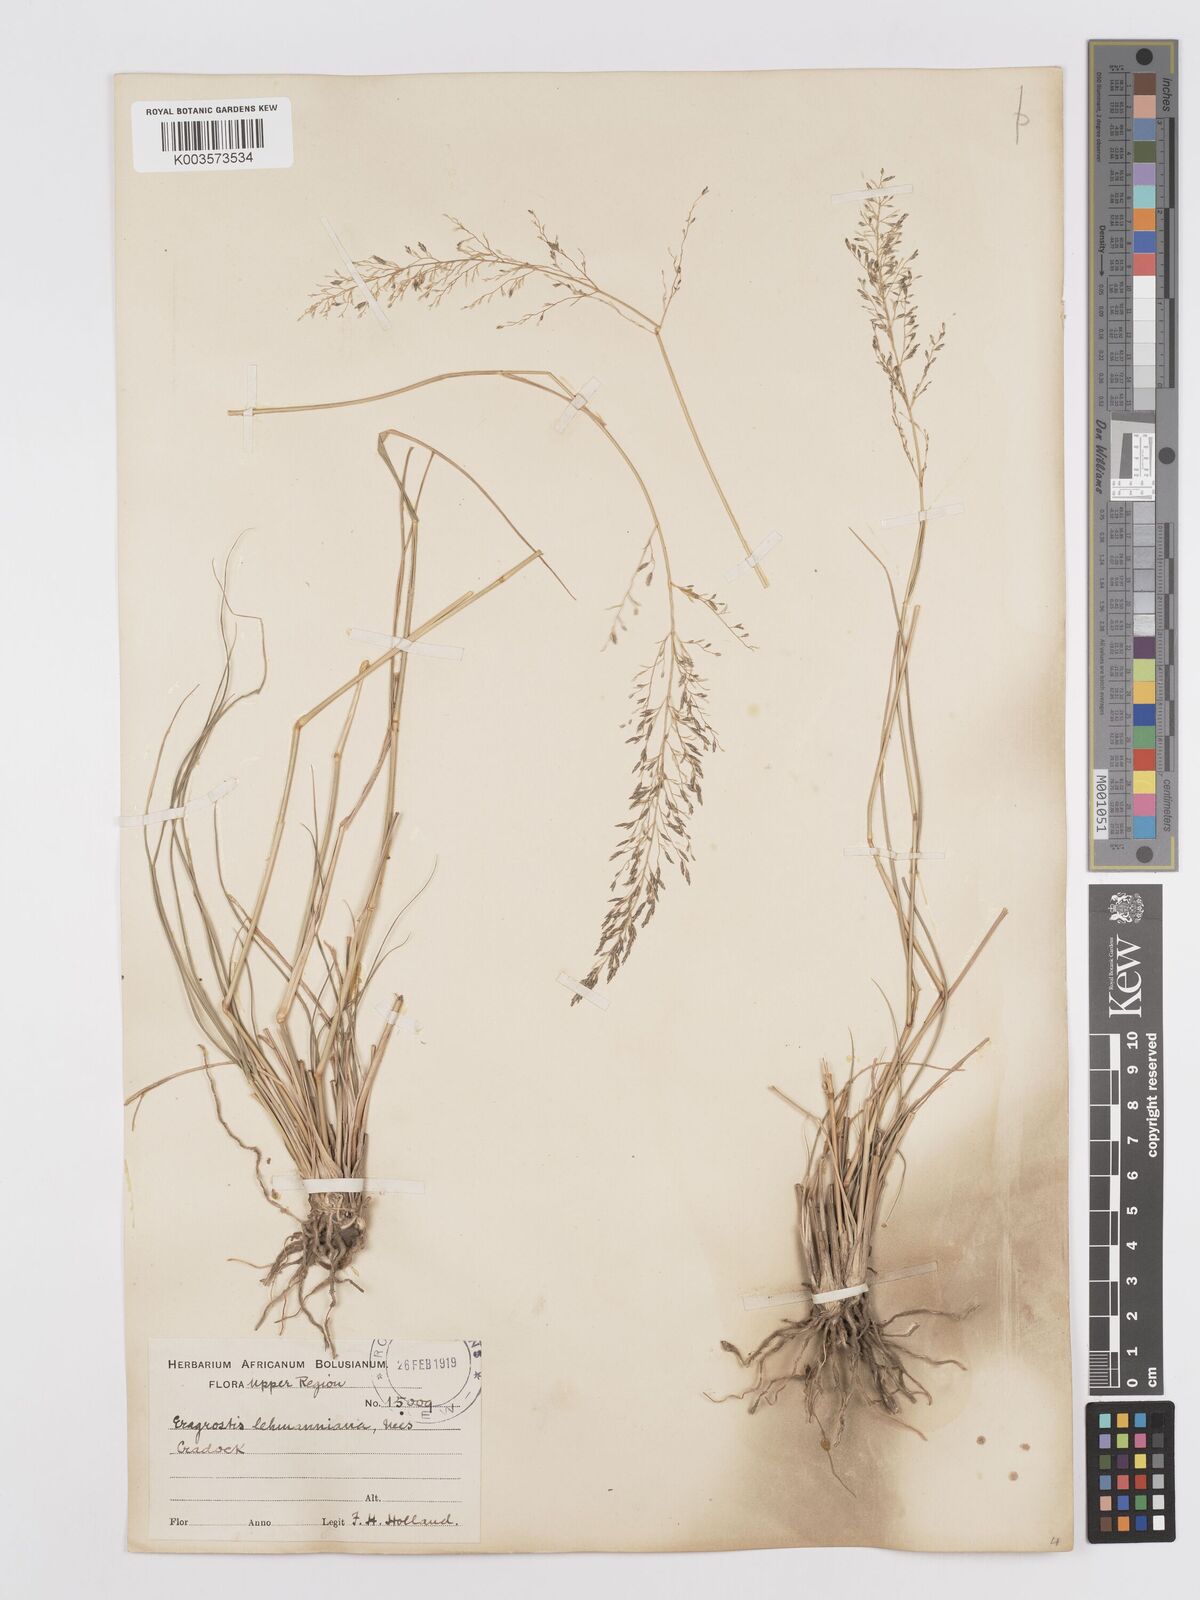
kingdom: Plantae
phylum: Tracheophyta
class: Liliopsida
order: Poales
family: Poaceae
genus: Eragrostis
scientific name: Eragrostis lehmanniana
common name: Lehmann lovegrass
